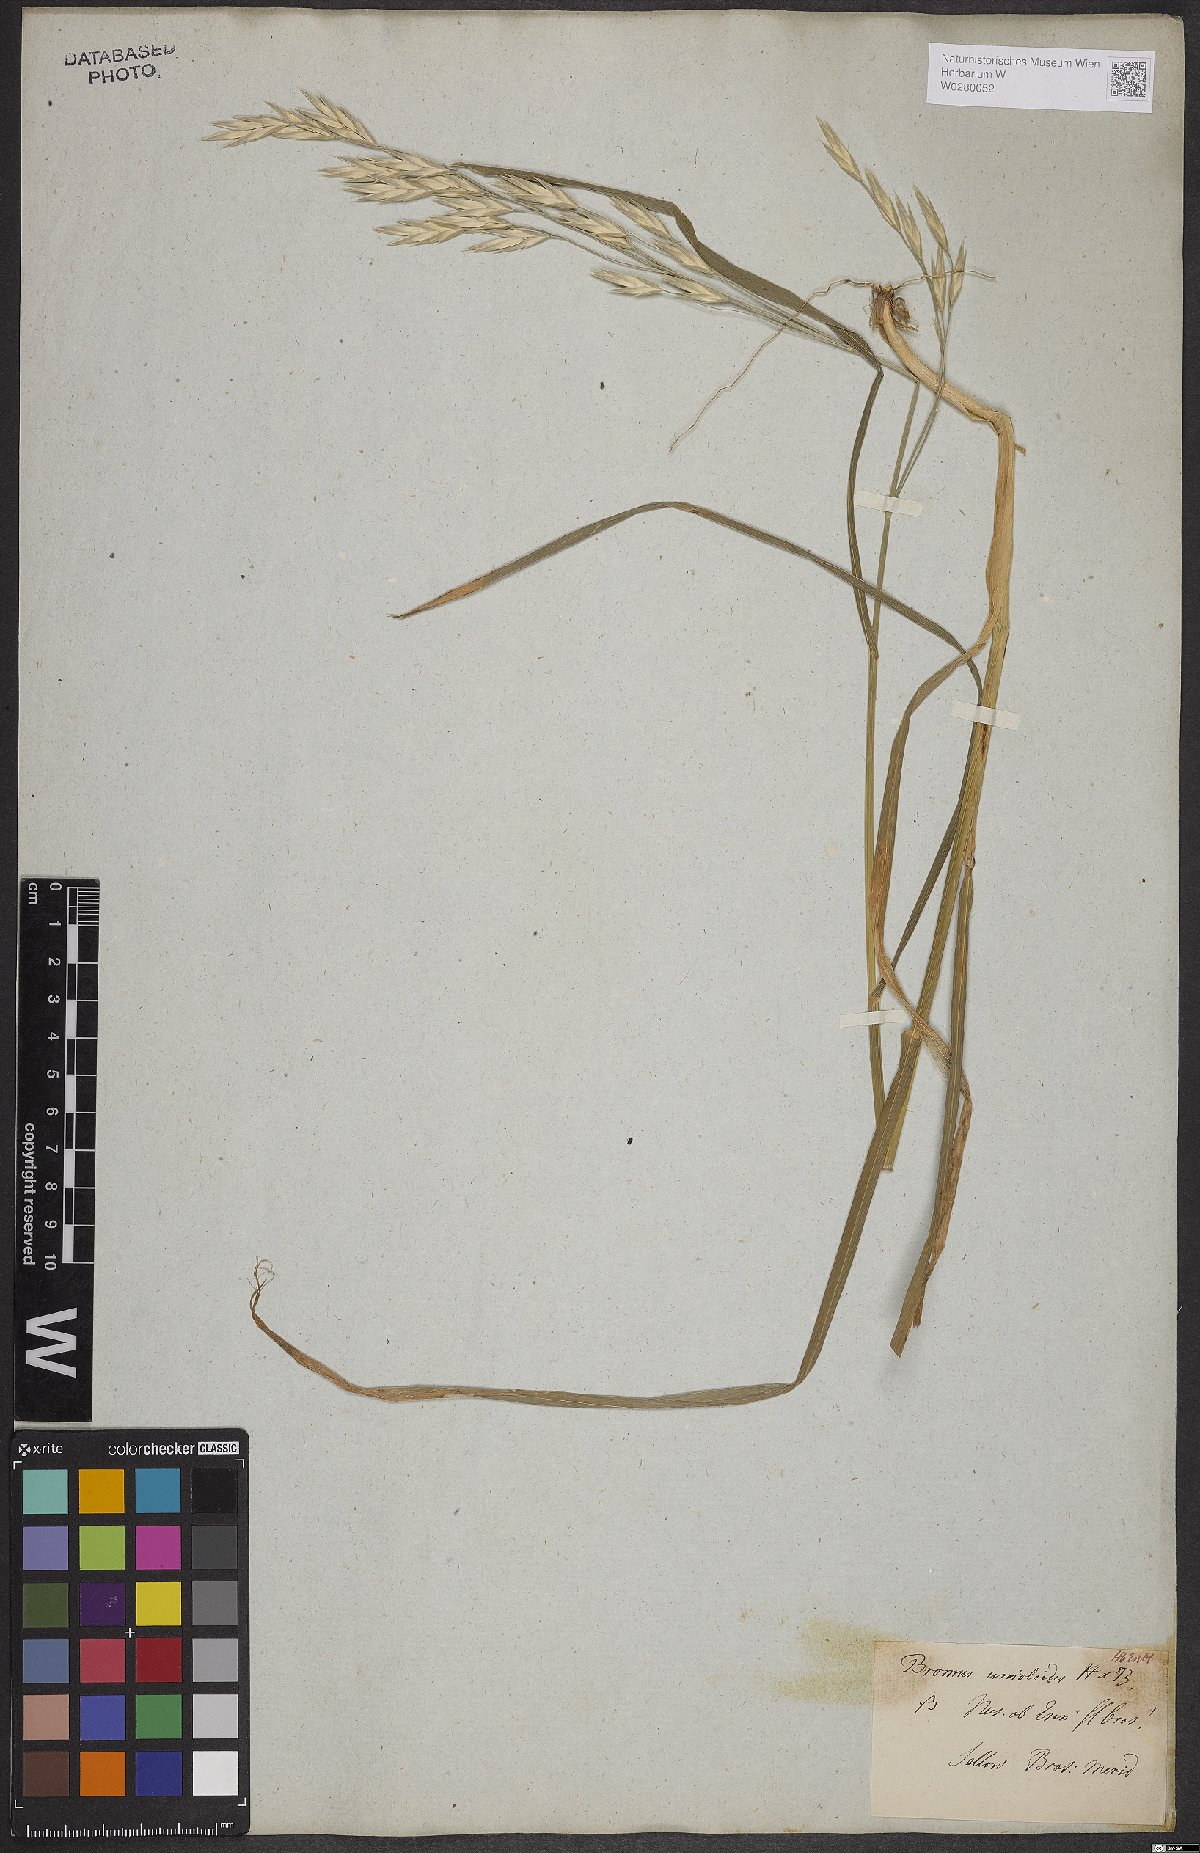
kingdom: Plantae
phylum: Tracheophyta
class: Liliopsida
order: Poales
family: Poaceae
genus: Bromus
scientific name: Bromus catharticus
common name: Rescuegrass
